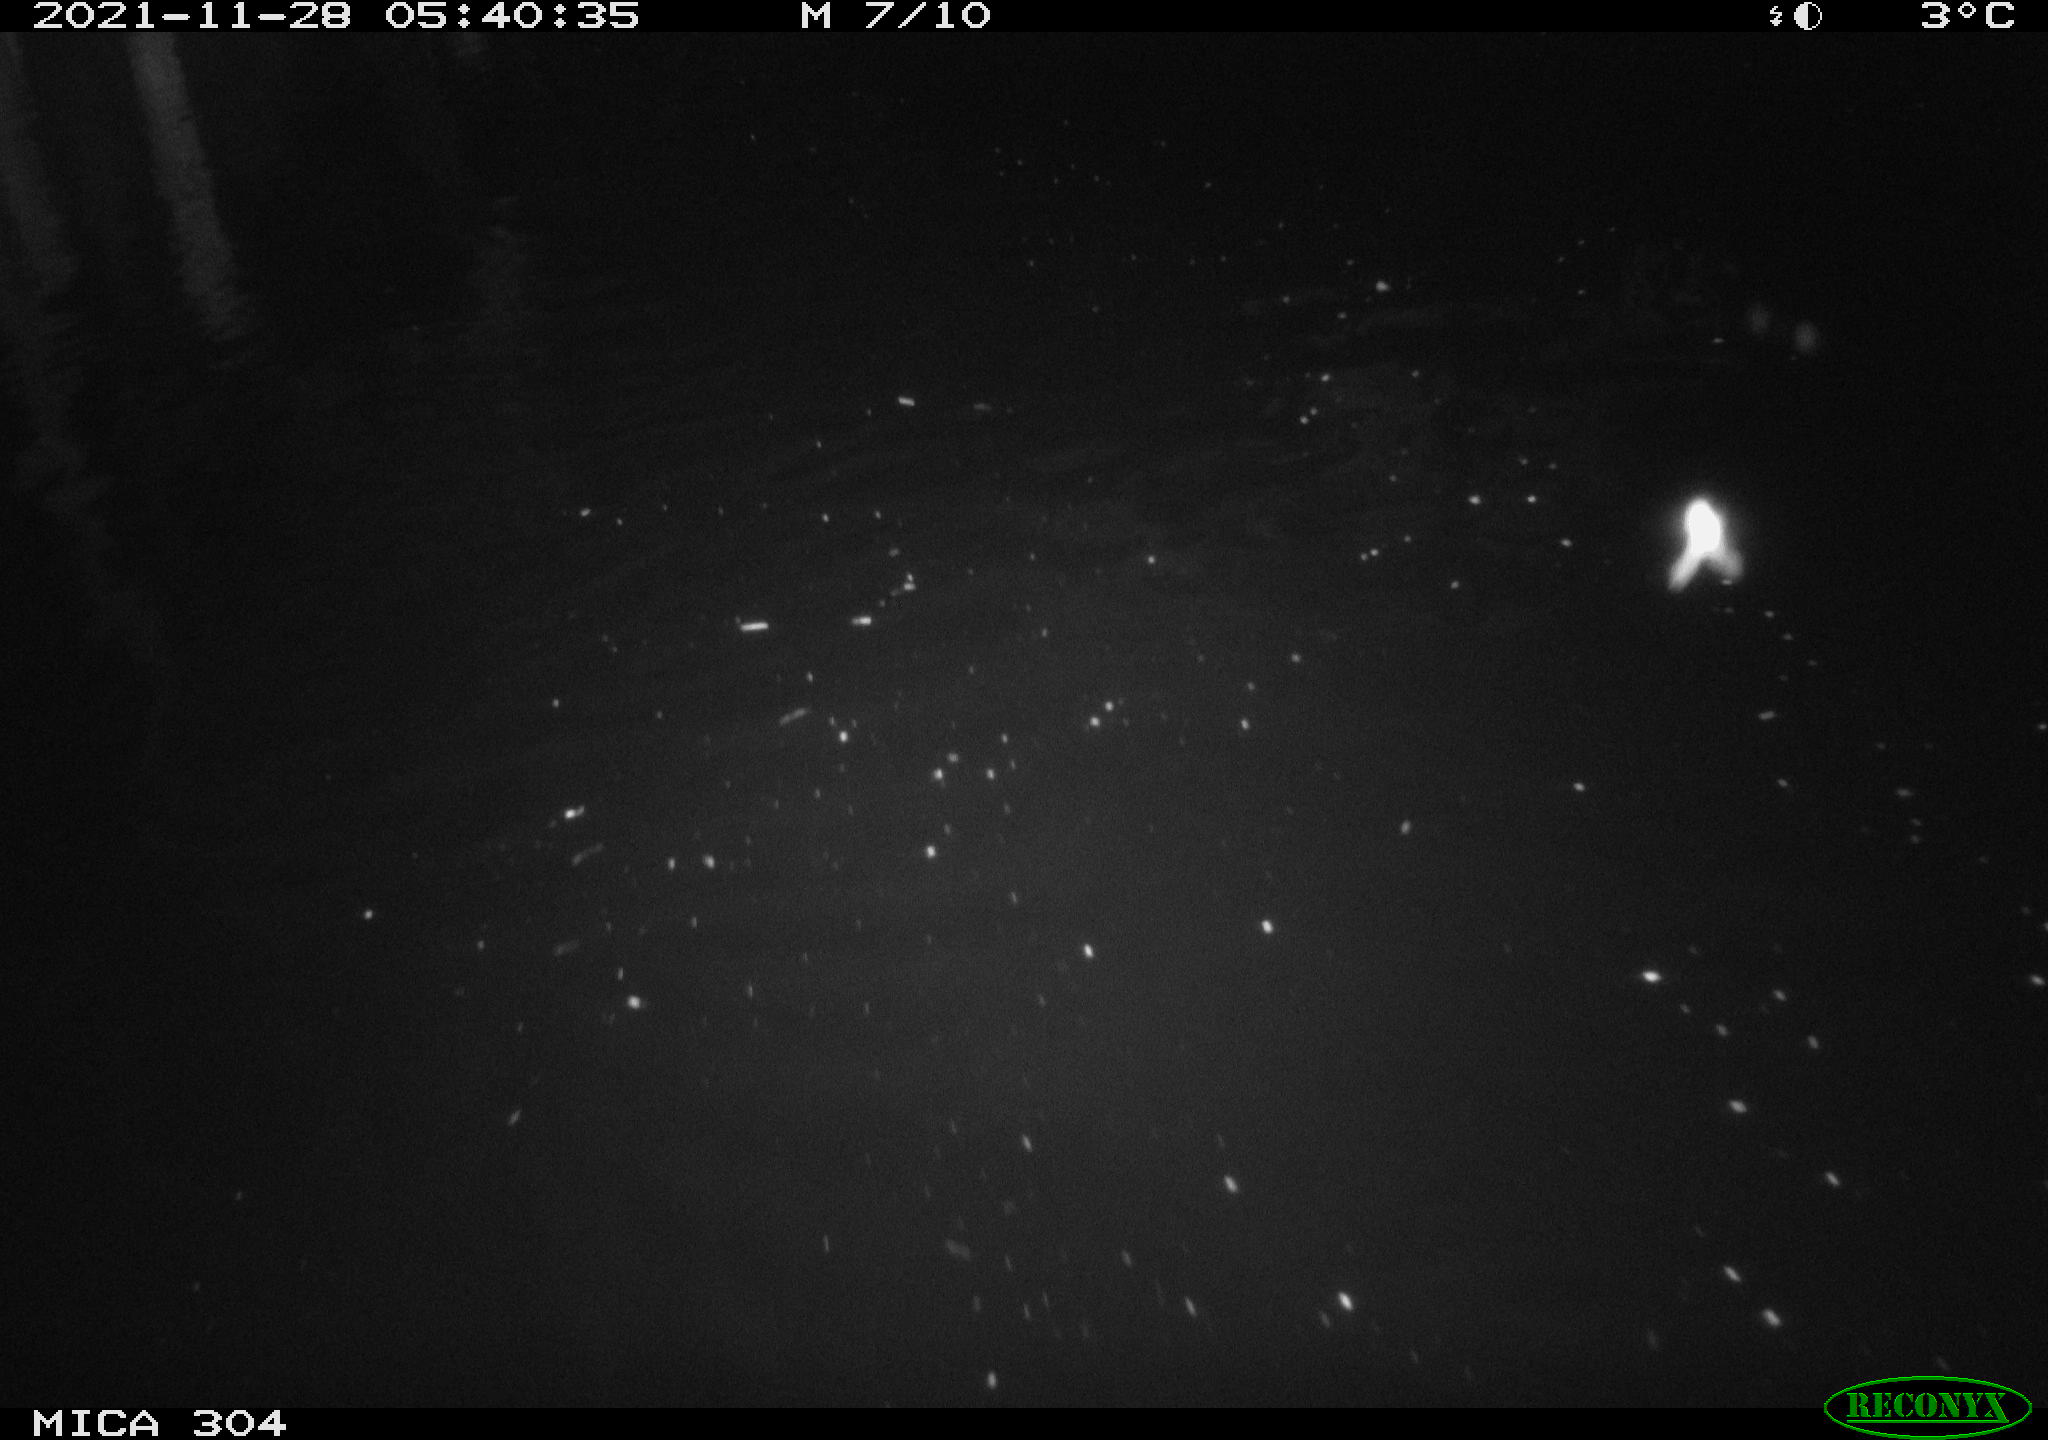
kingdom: Animalia
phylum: Chordata
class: Mammalia
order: Rodentia
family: Muridae
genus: Rattus
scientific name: Rattus norvegicus
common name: Brown rat
